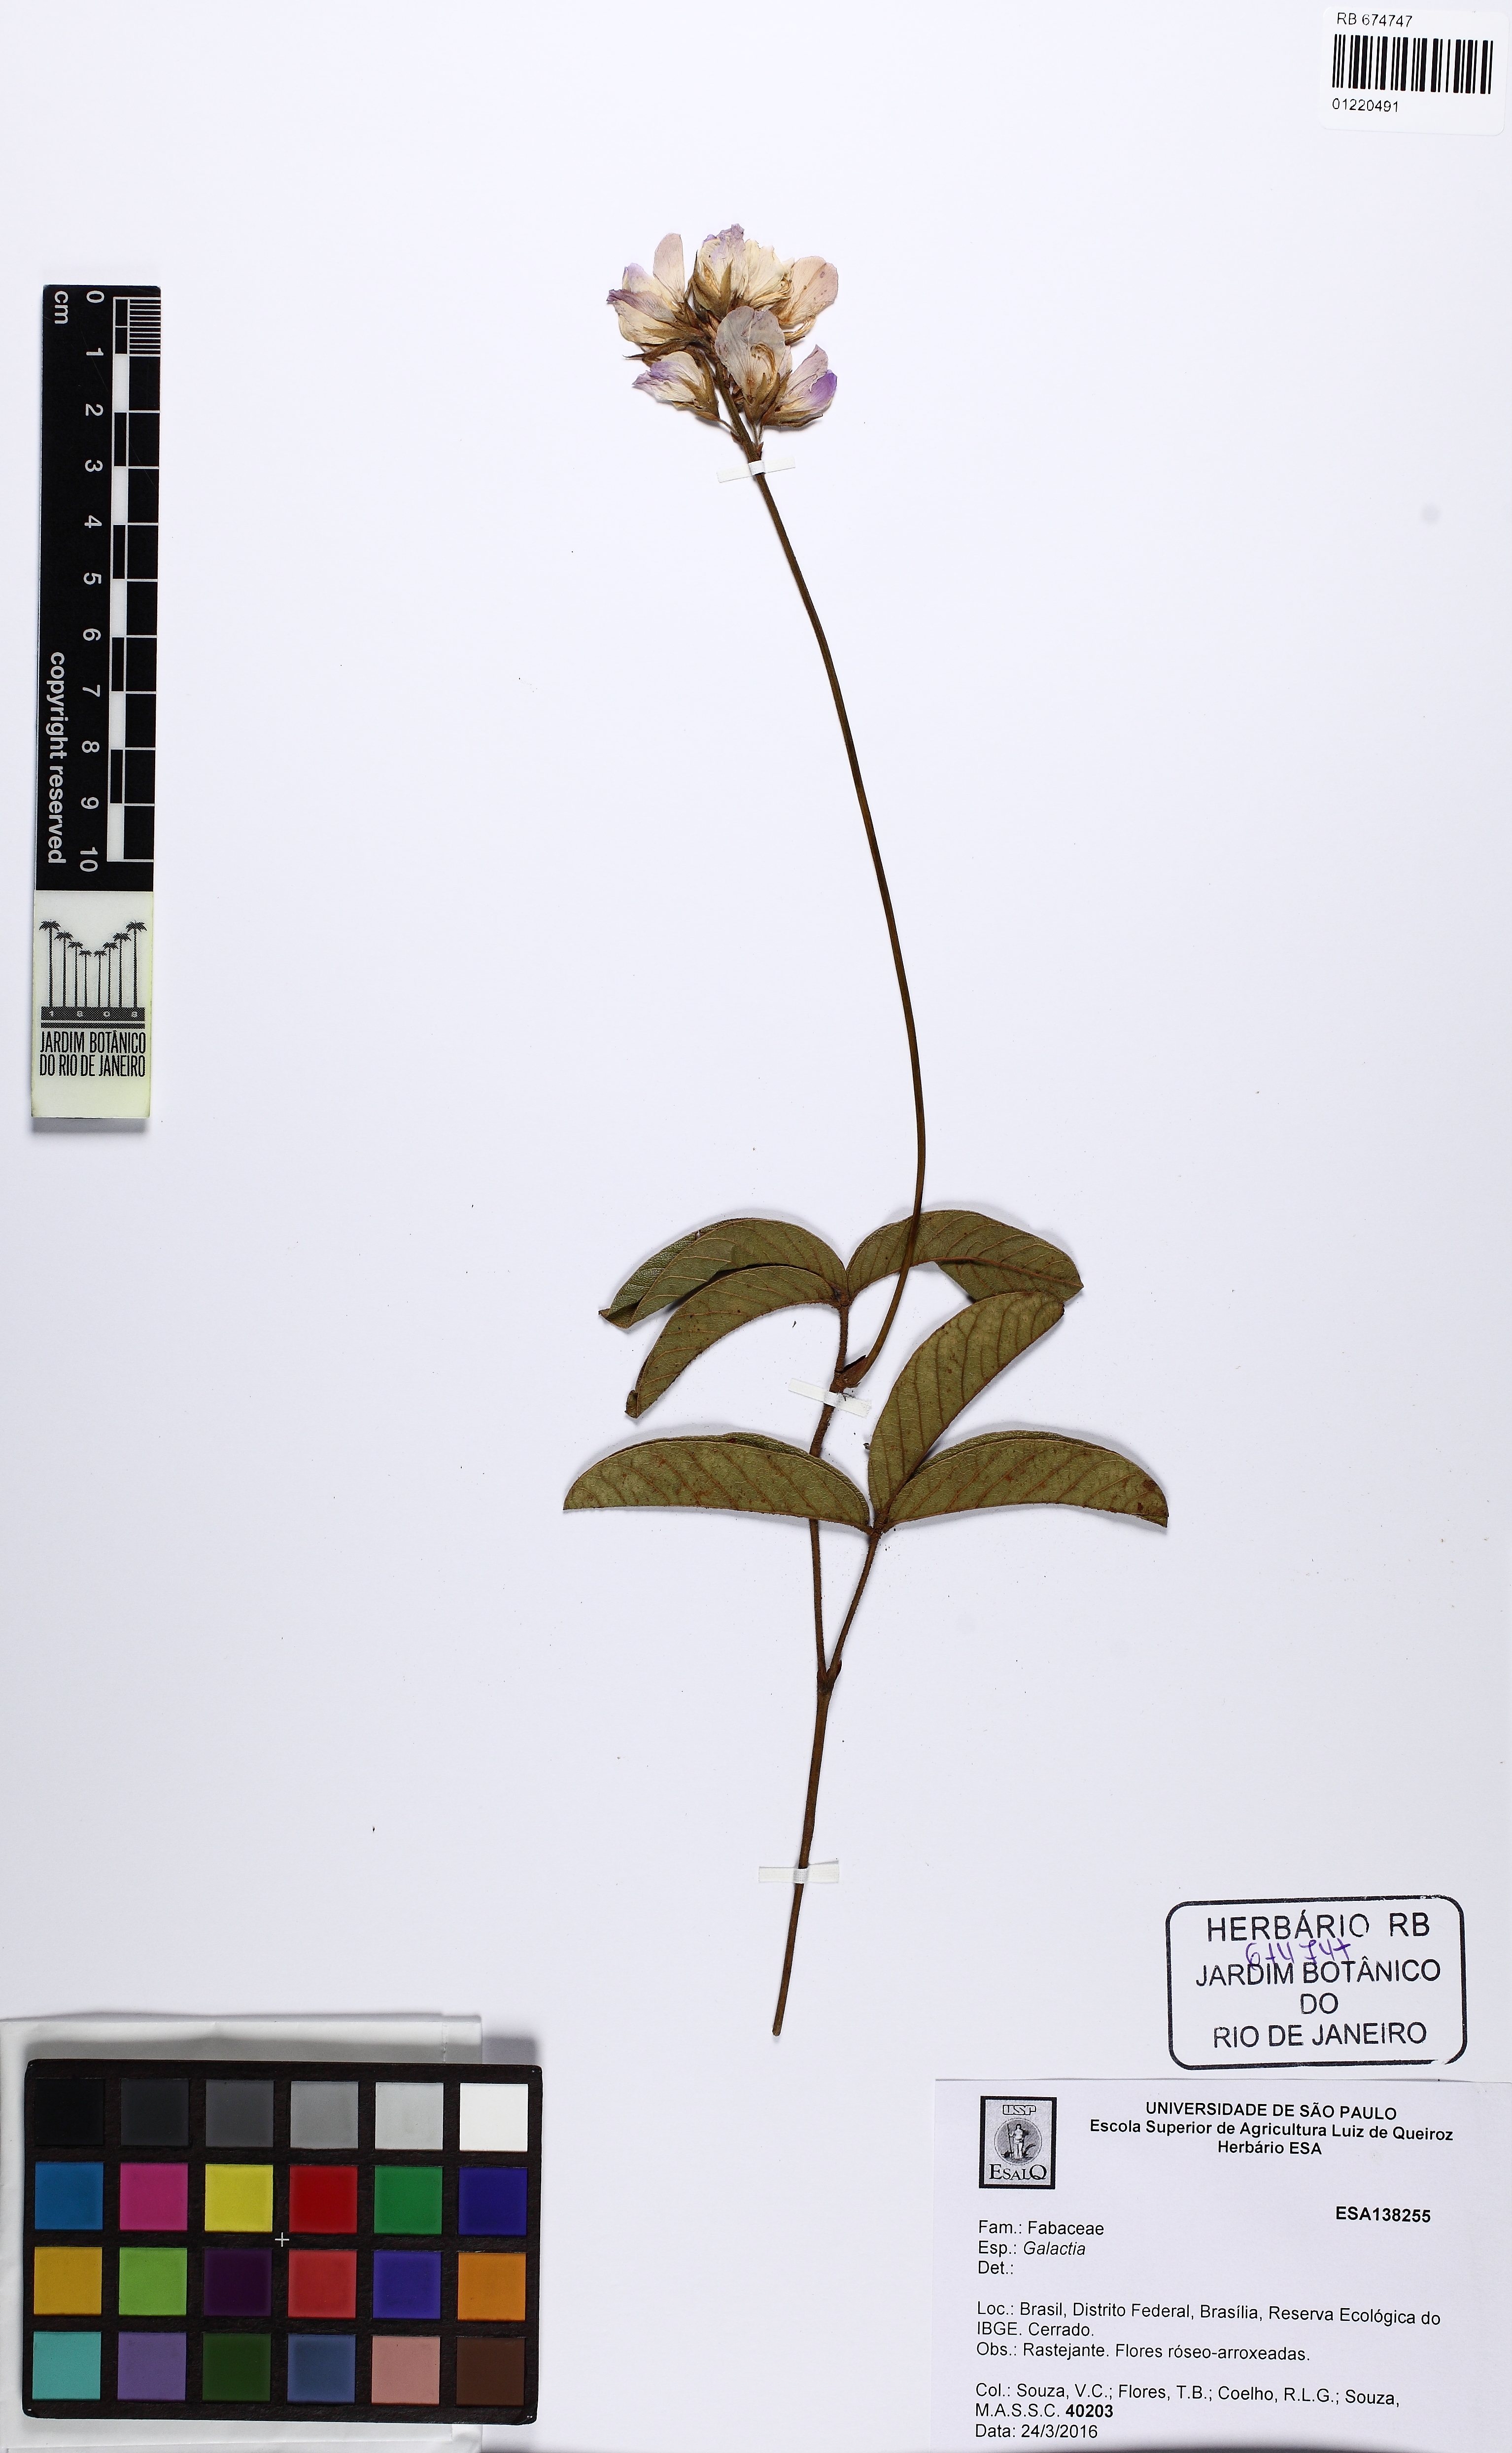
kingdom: Plantae
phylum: Tracheophyta
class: Magnoliopsida
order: Fabales
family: Fabaceae
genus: Betencourtia
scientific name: Betencourtia stereophylla
